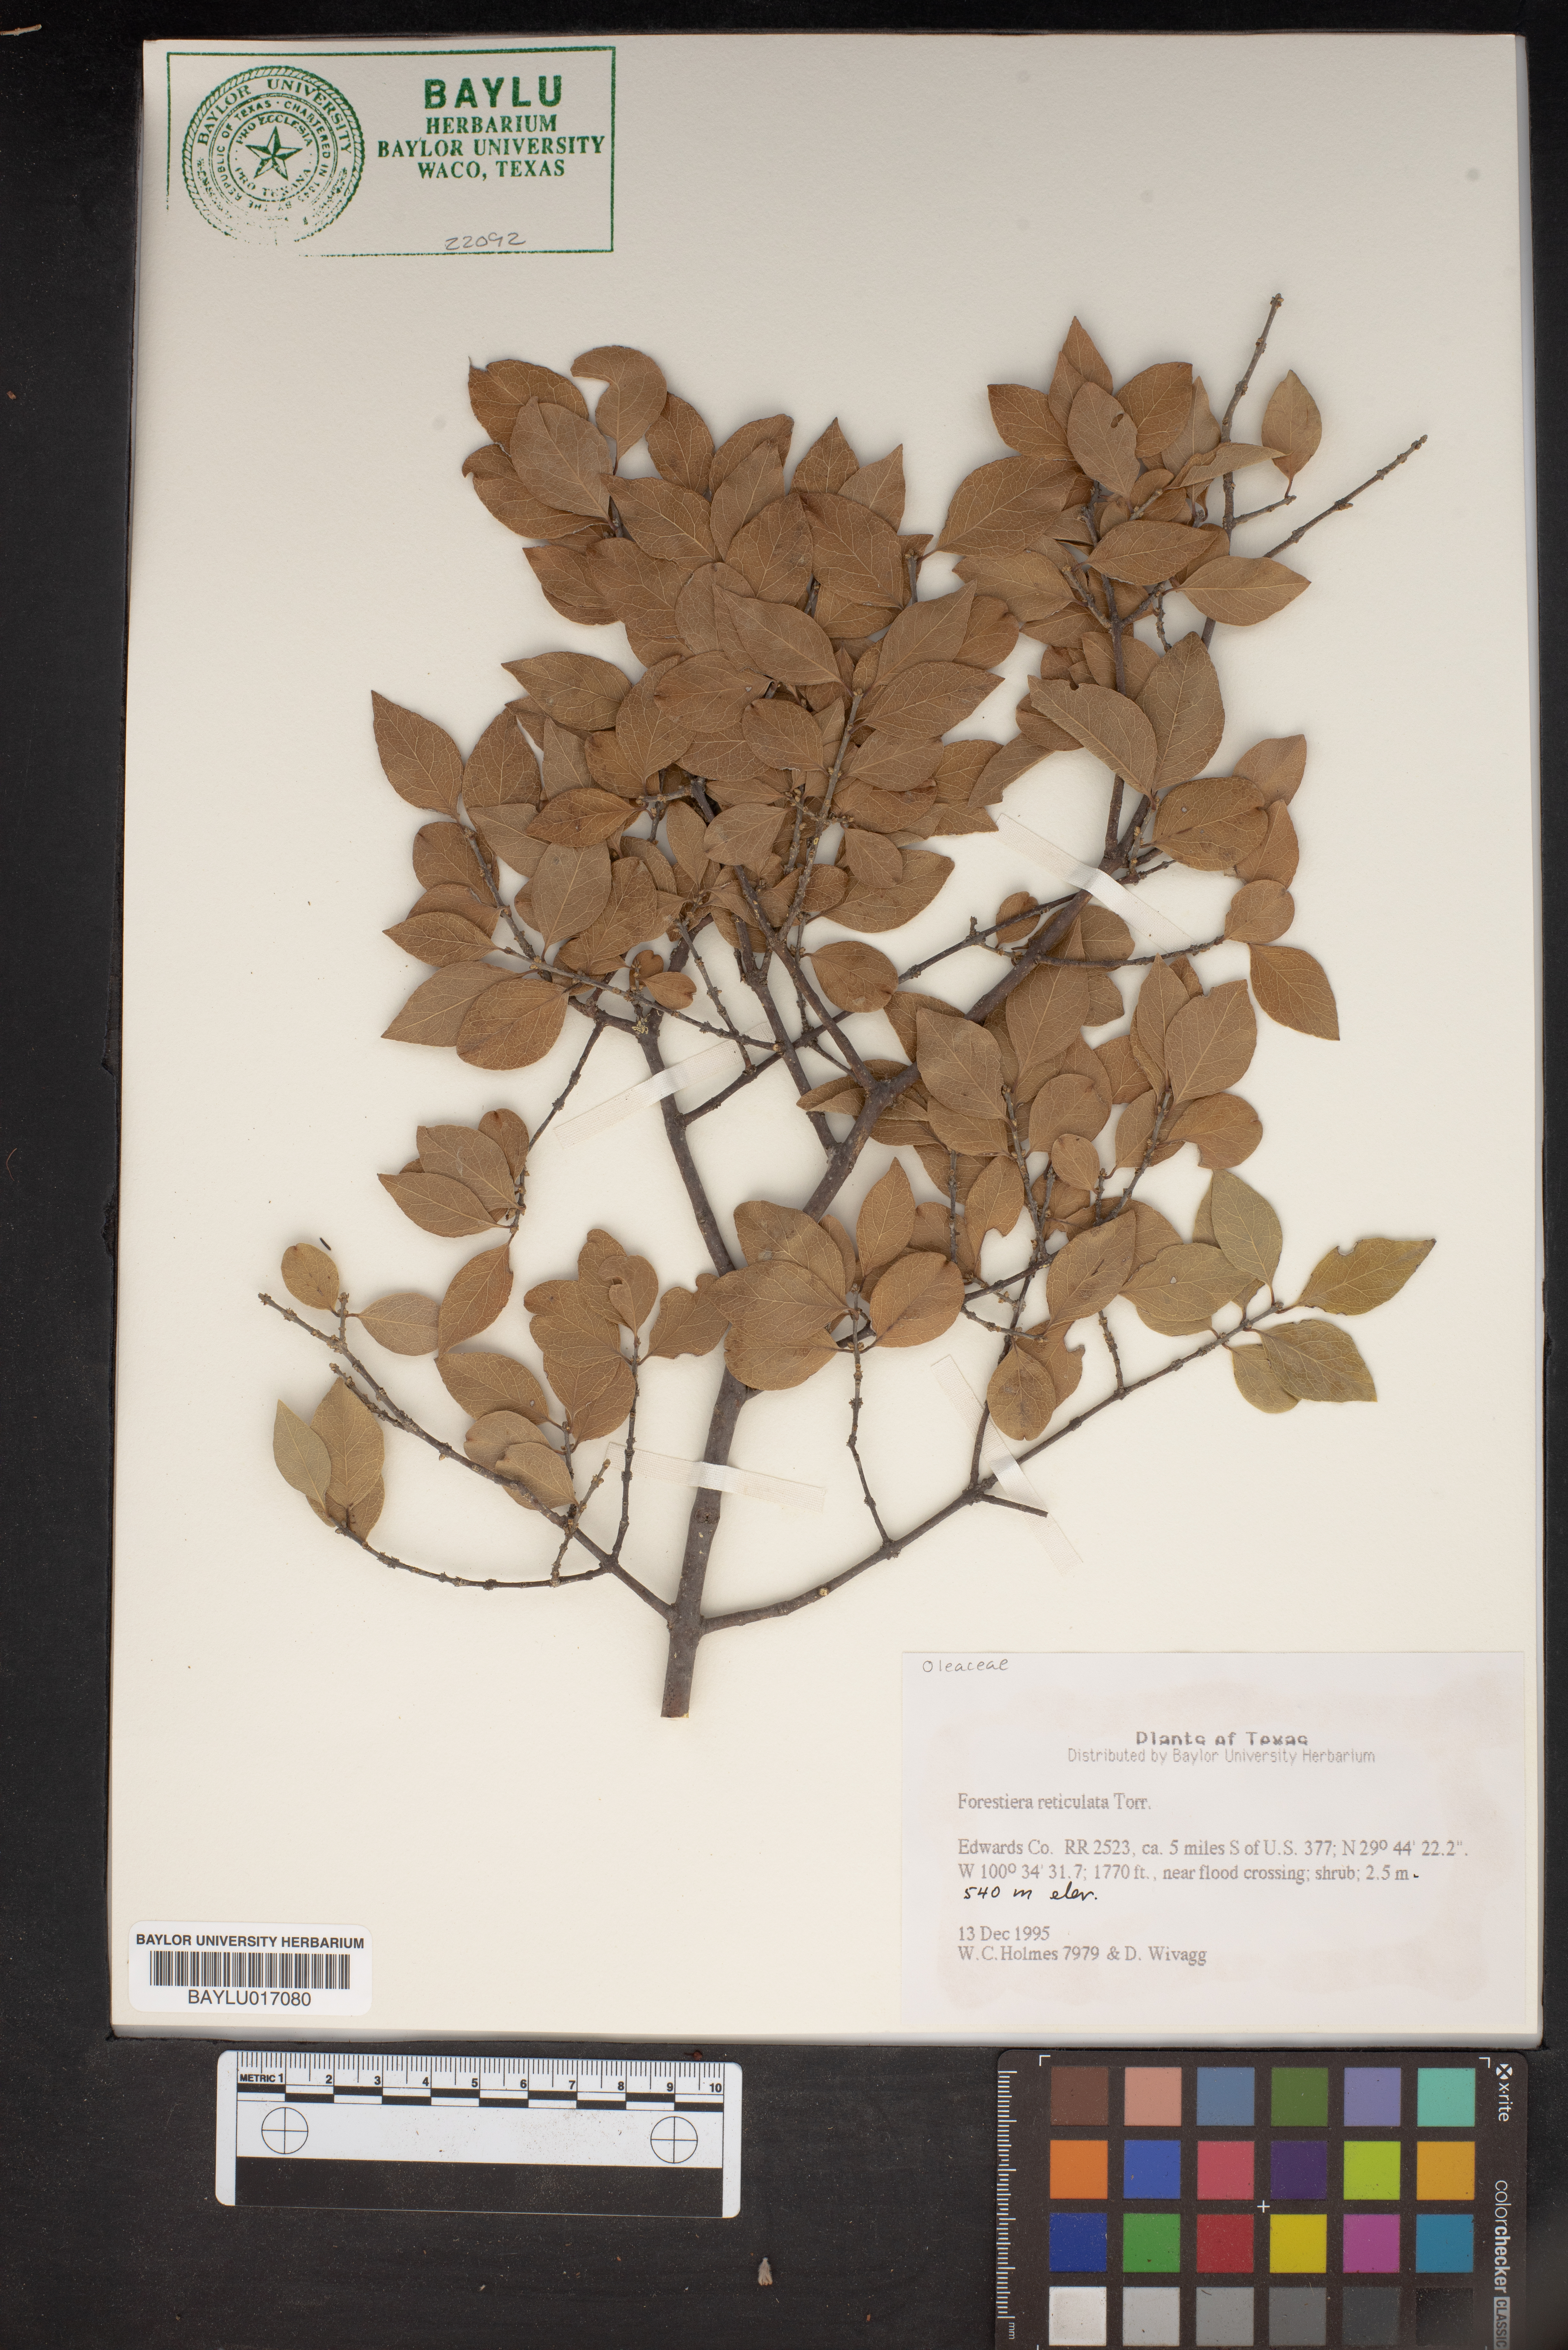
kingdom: Plantae
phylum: Tracheophyta
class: Magnoliopsida
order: Lamiales
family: Oleaceae
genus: Forestiera
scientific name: Forestiera reticulata
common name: Netleaf swamp-privet
